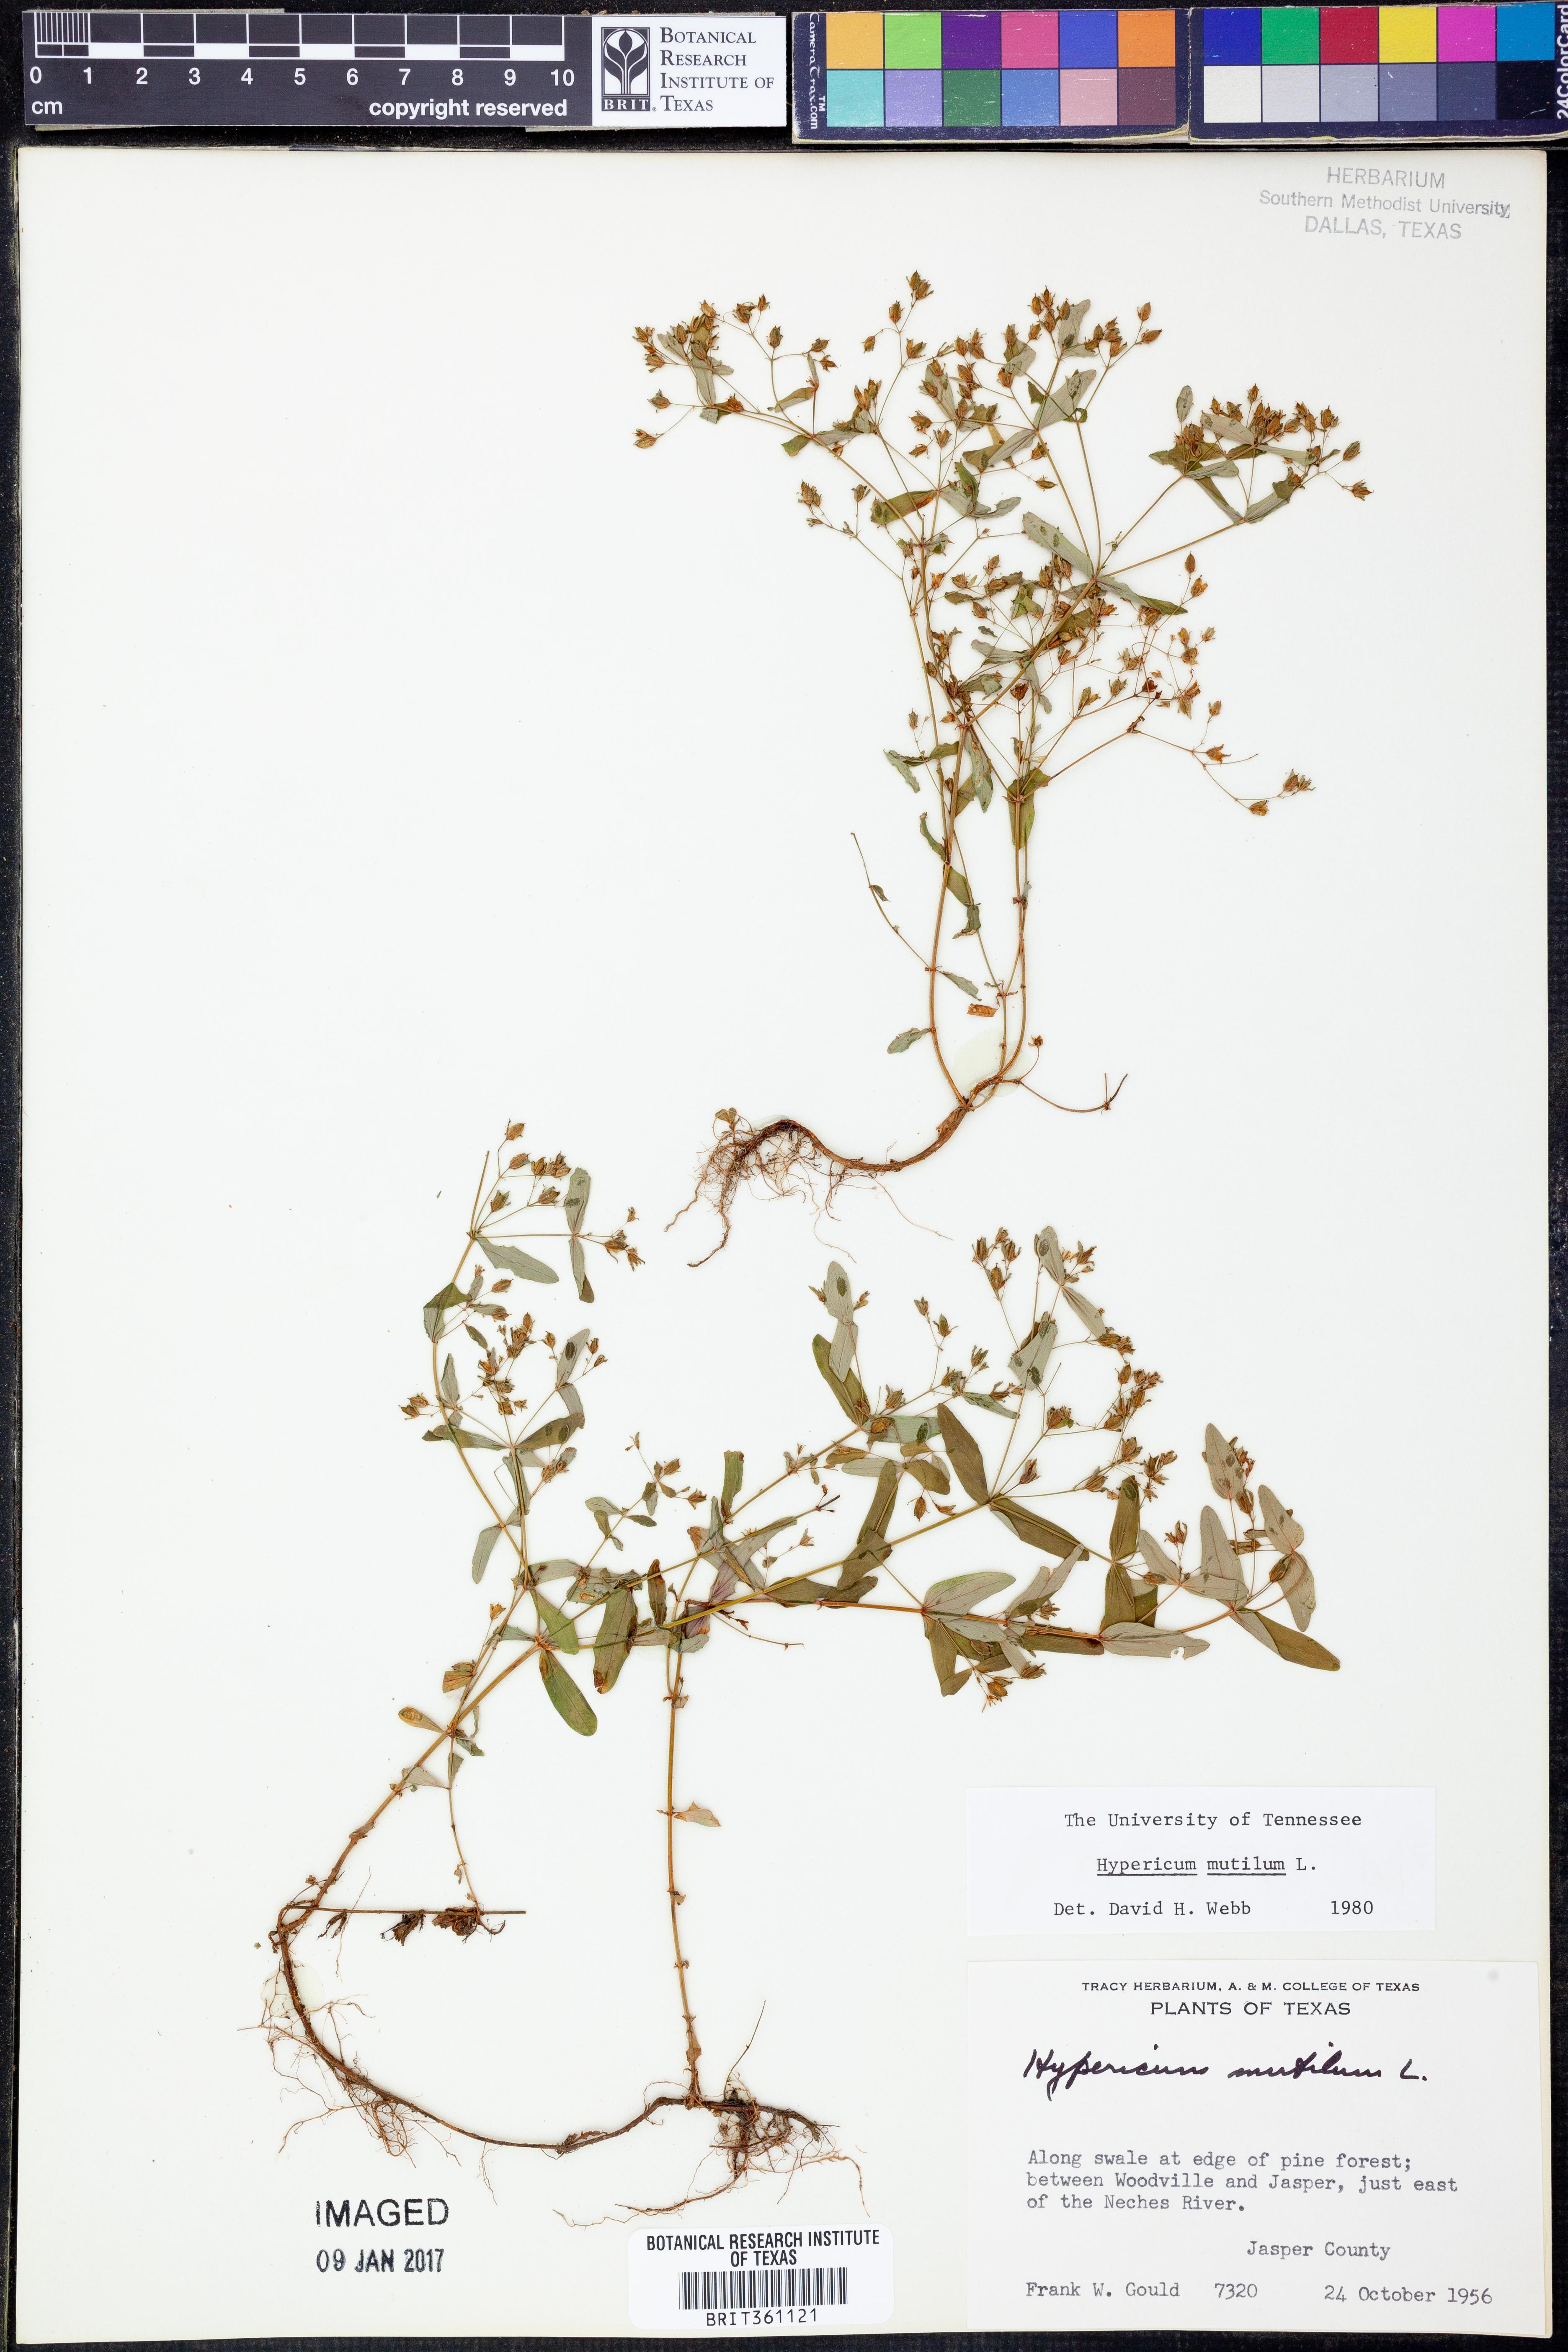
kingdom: Plantae
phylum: Tracheophyta
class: Magnoliopsida
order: Malpighiales
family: Hypericaceae
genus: Hypericum
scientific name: Hypericum mutilum
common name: Dwarf st. john's-wort
